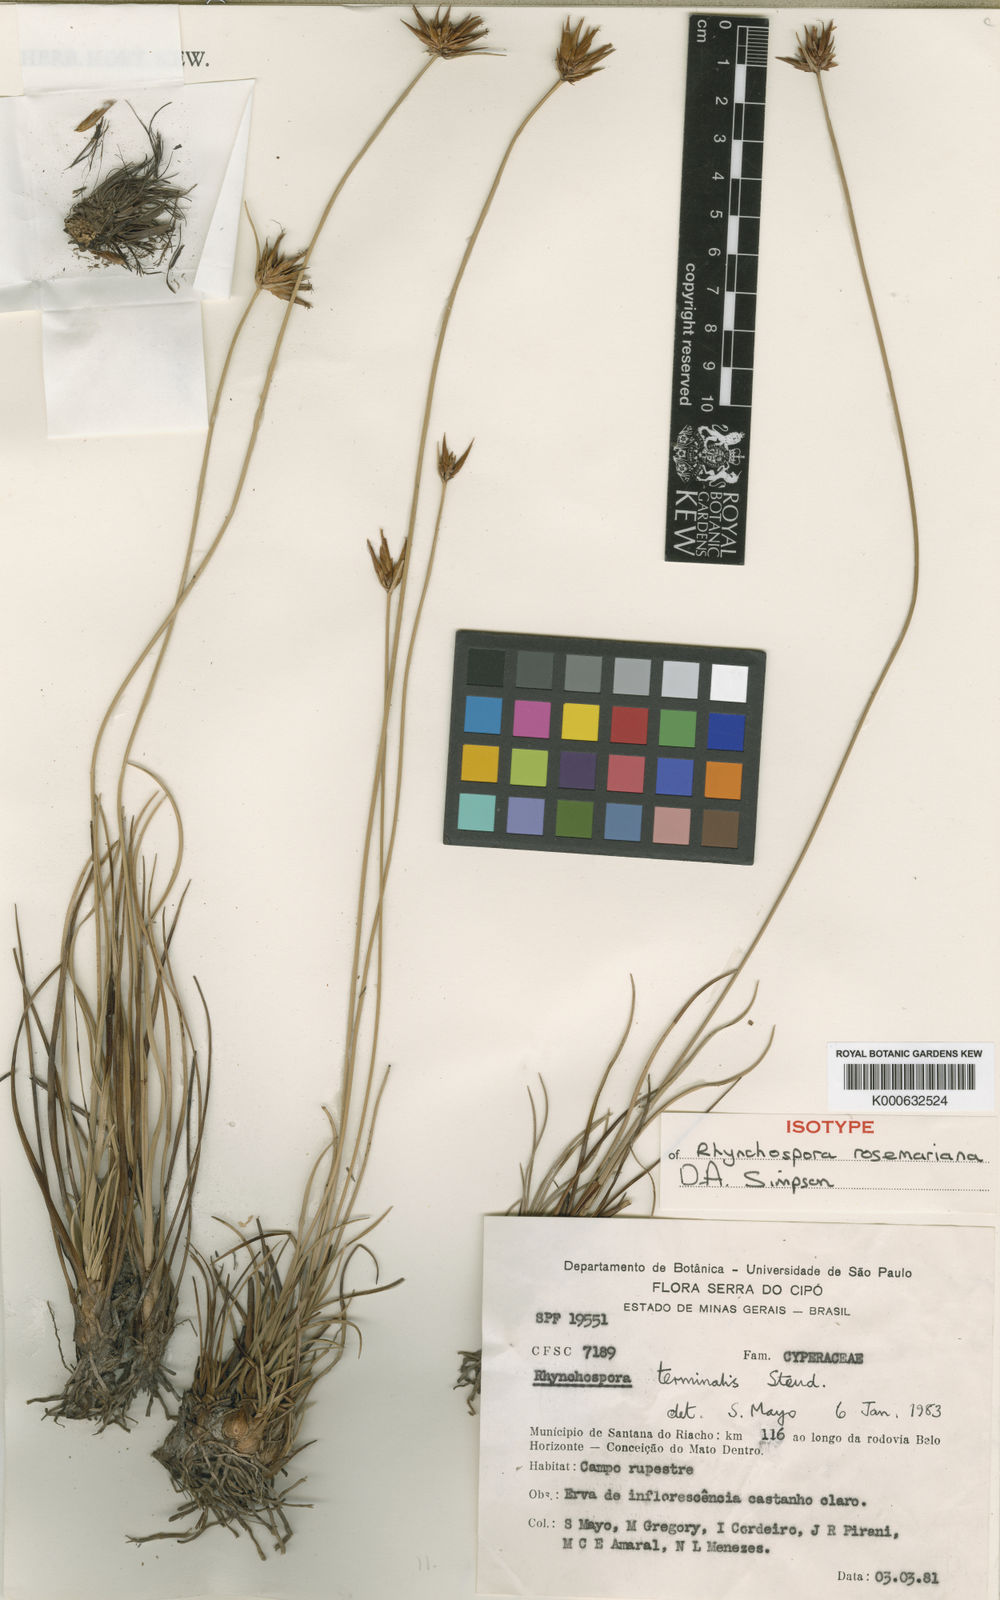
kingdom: Plantae
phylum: Tracheophyta
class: Liliopsida
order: Poales
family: Cyperaceae
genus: Rhynchospora
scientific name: Rhynchospora rosemariana
